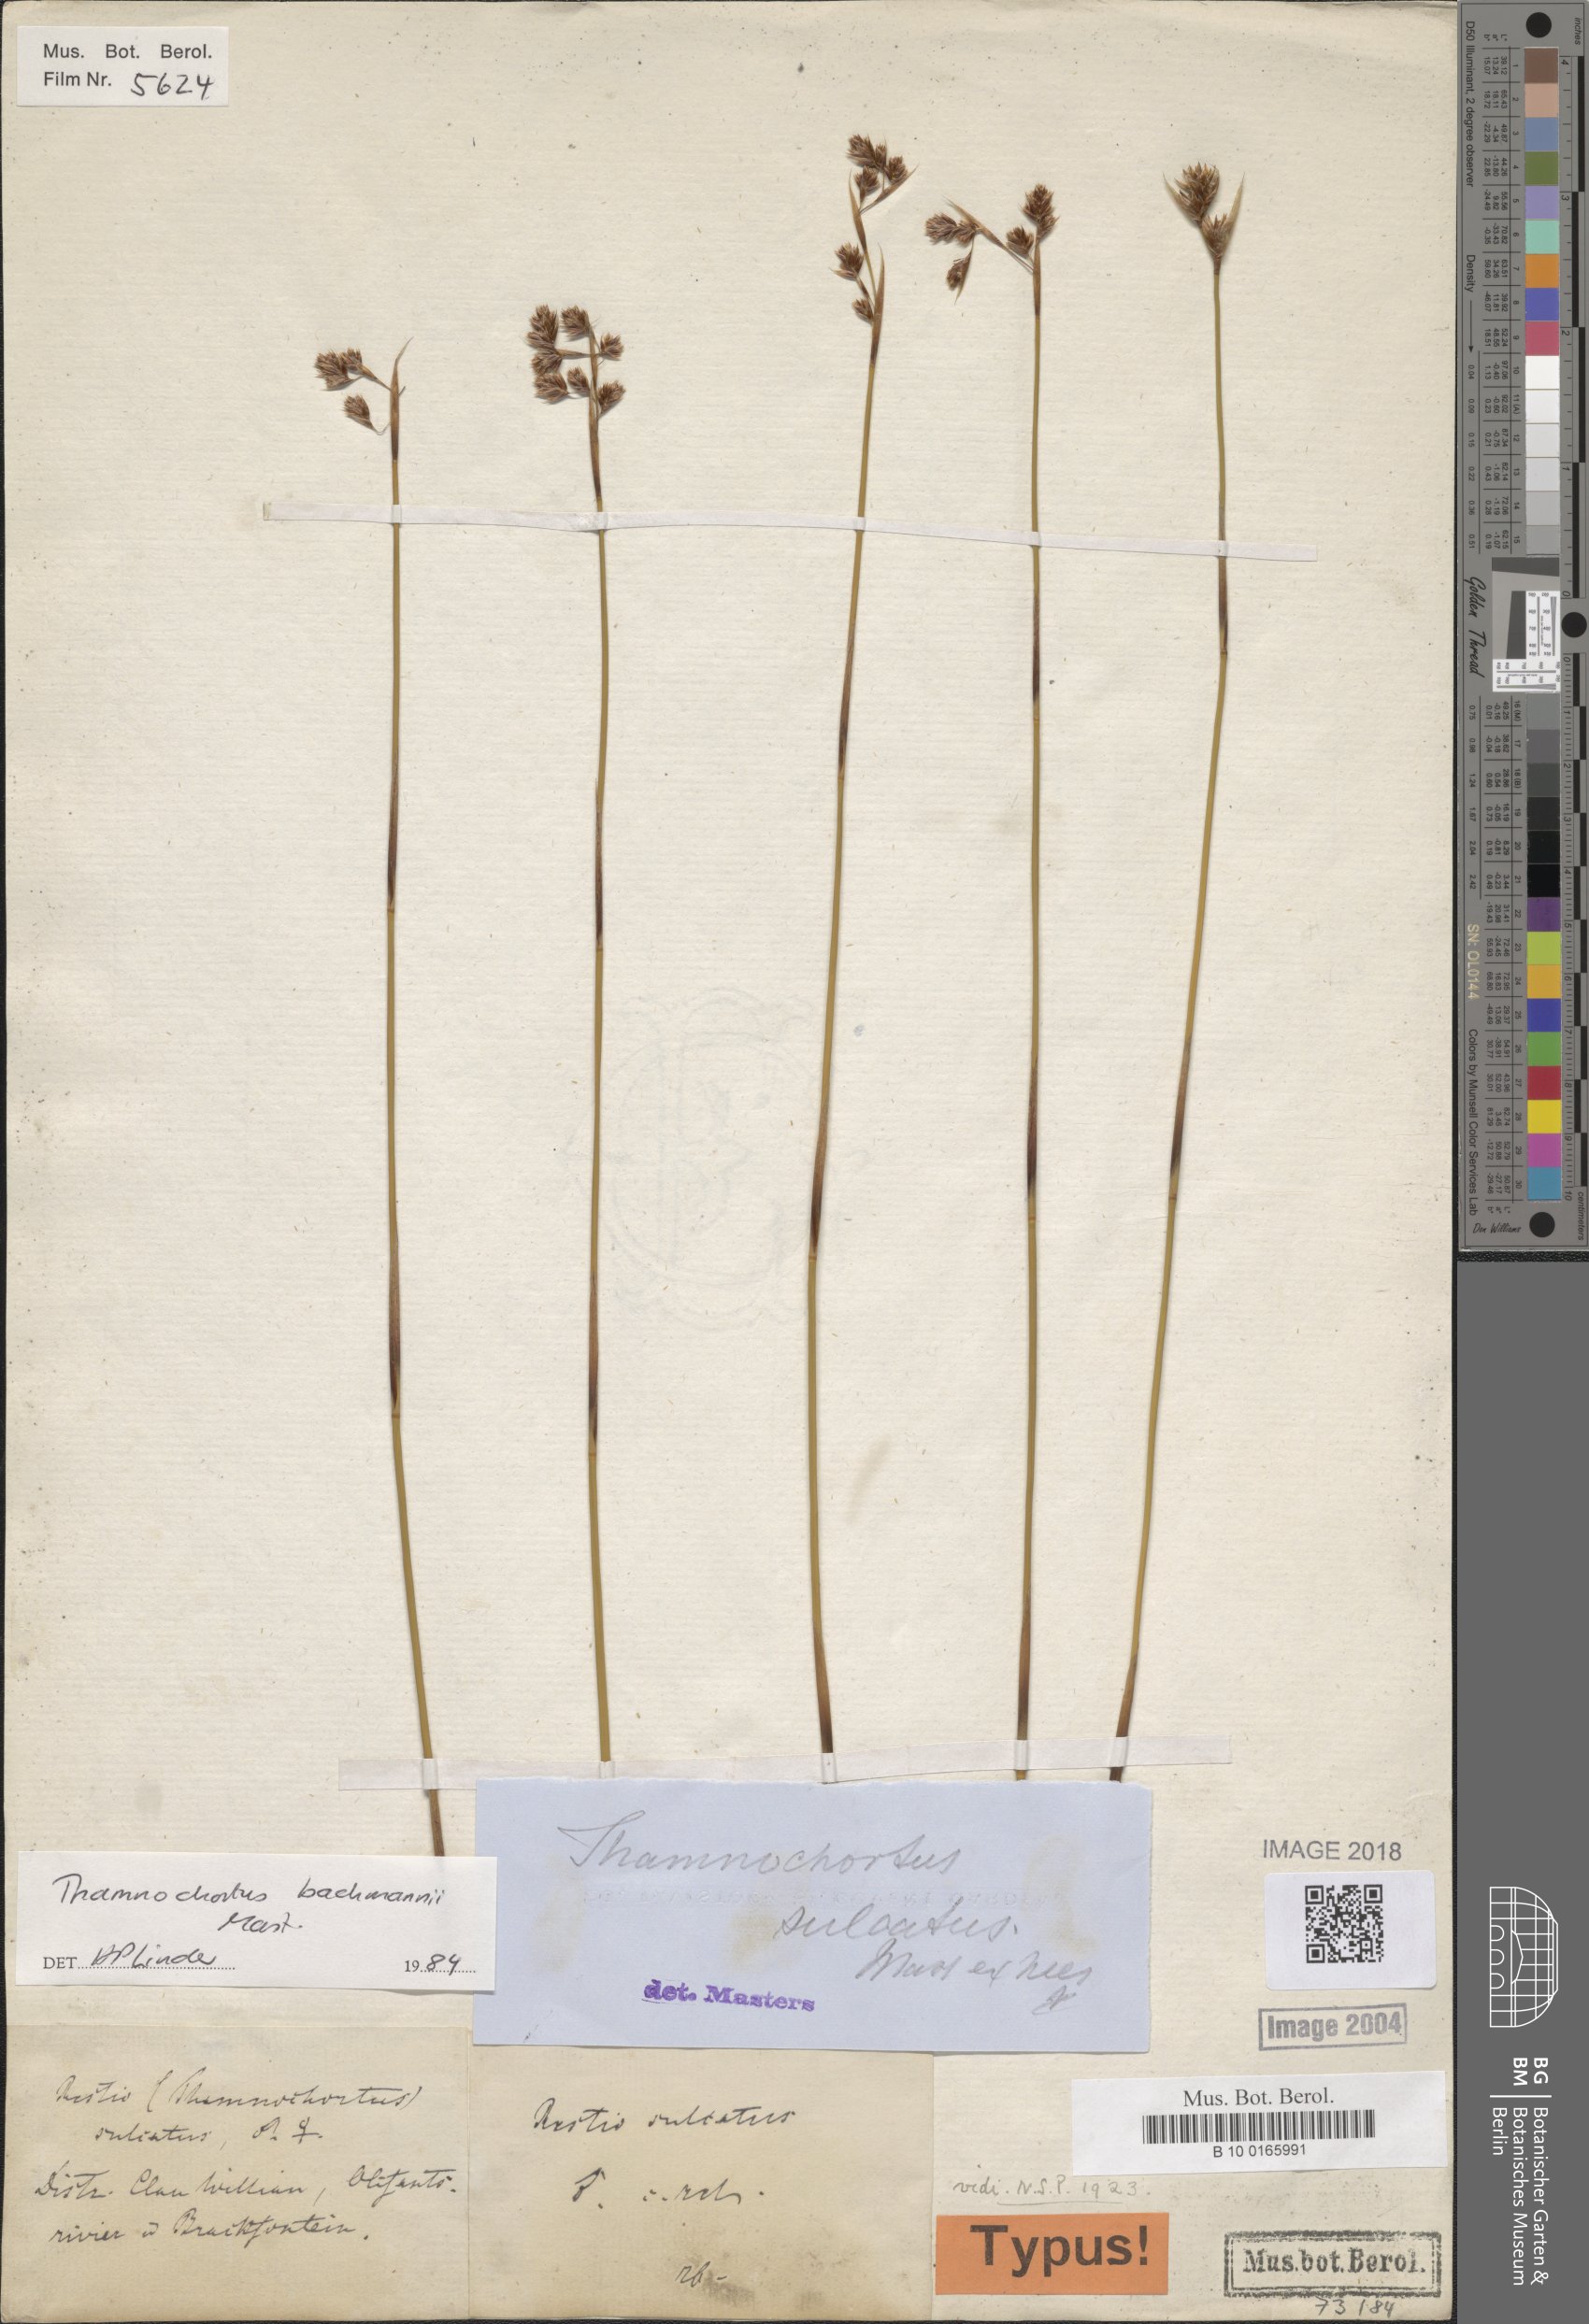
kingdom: Plantae
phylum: Tracheophyta
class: Liliopsida
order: Poales
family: Restionaceae
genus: Thamnochortus
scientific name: Thamnochortus bachmannii
